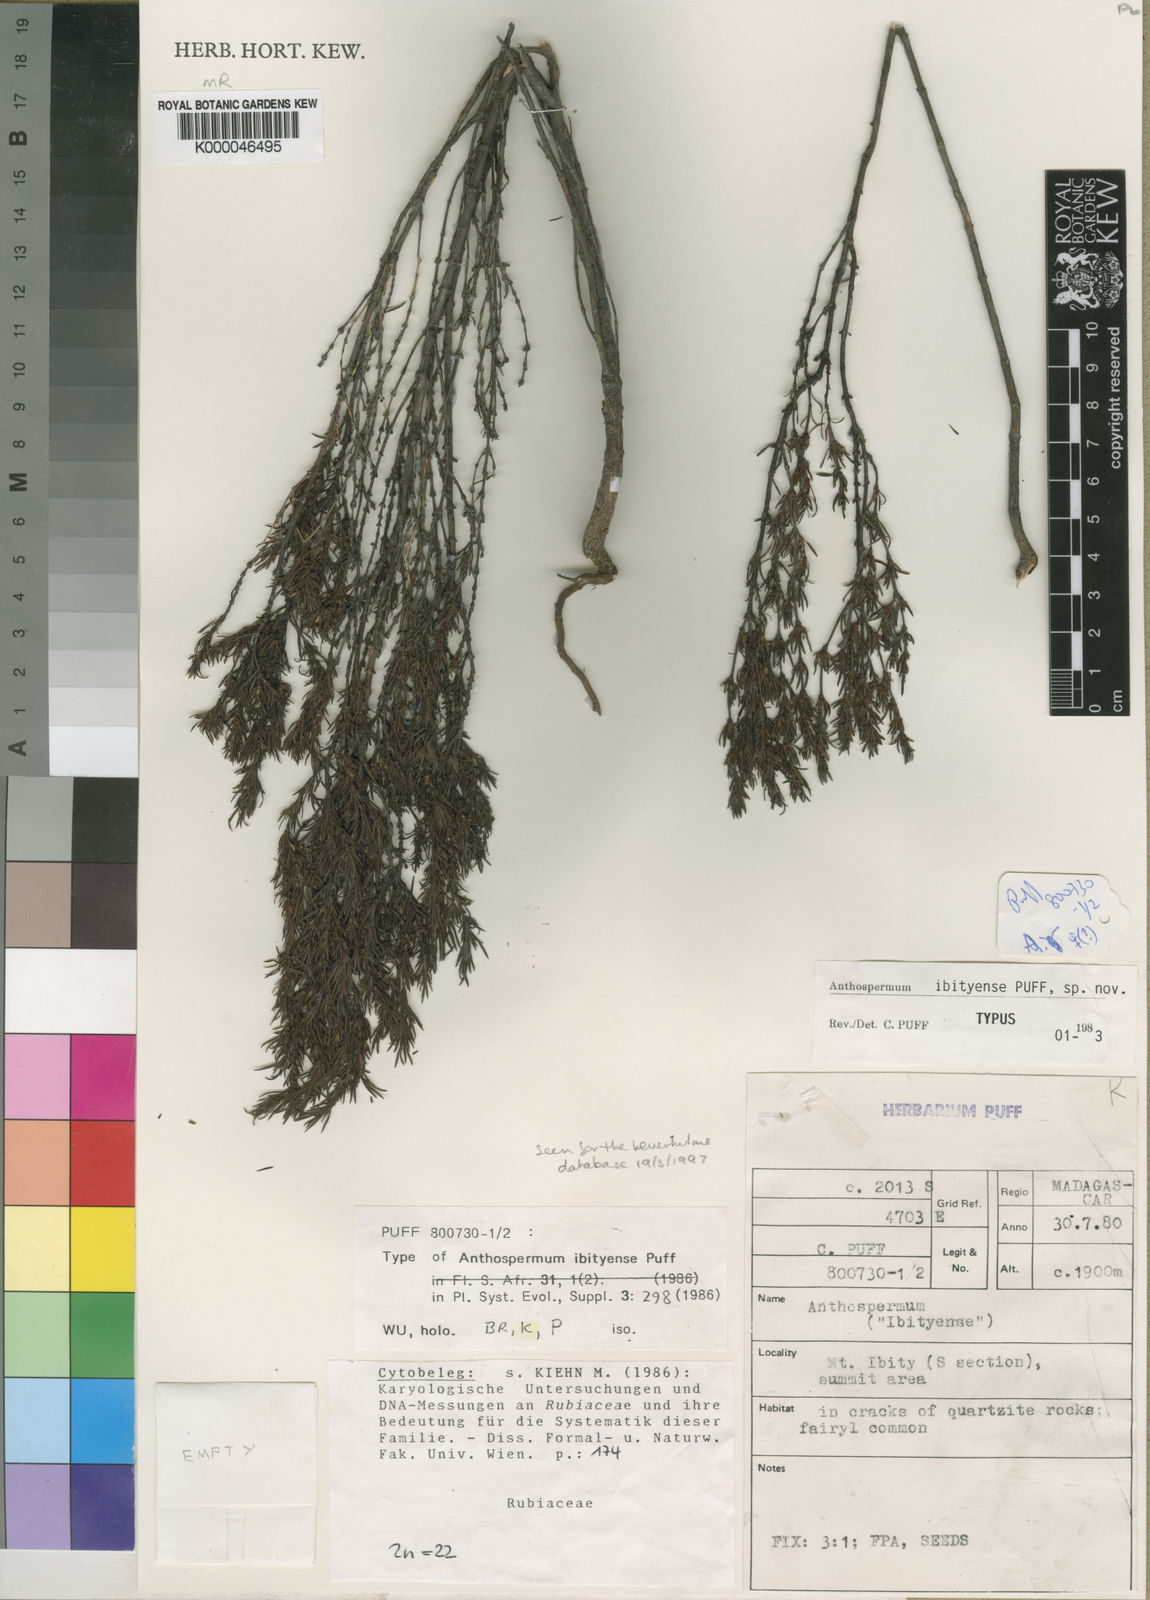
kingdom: Plantae
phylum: Tracheophyta
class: Magnoliopsida
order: Gentianales
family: Rubiaceae
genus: Anthospermum
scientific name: Anthospermum ibityense
